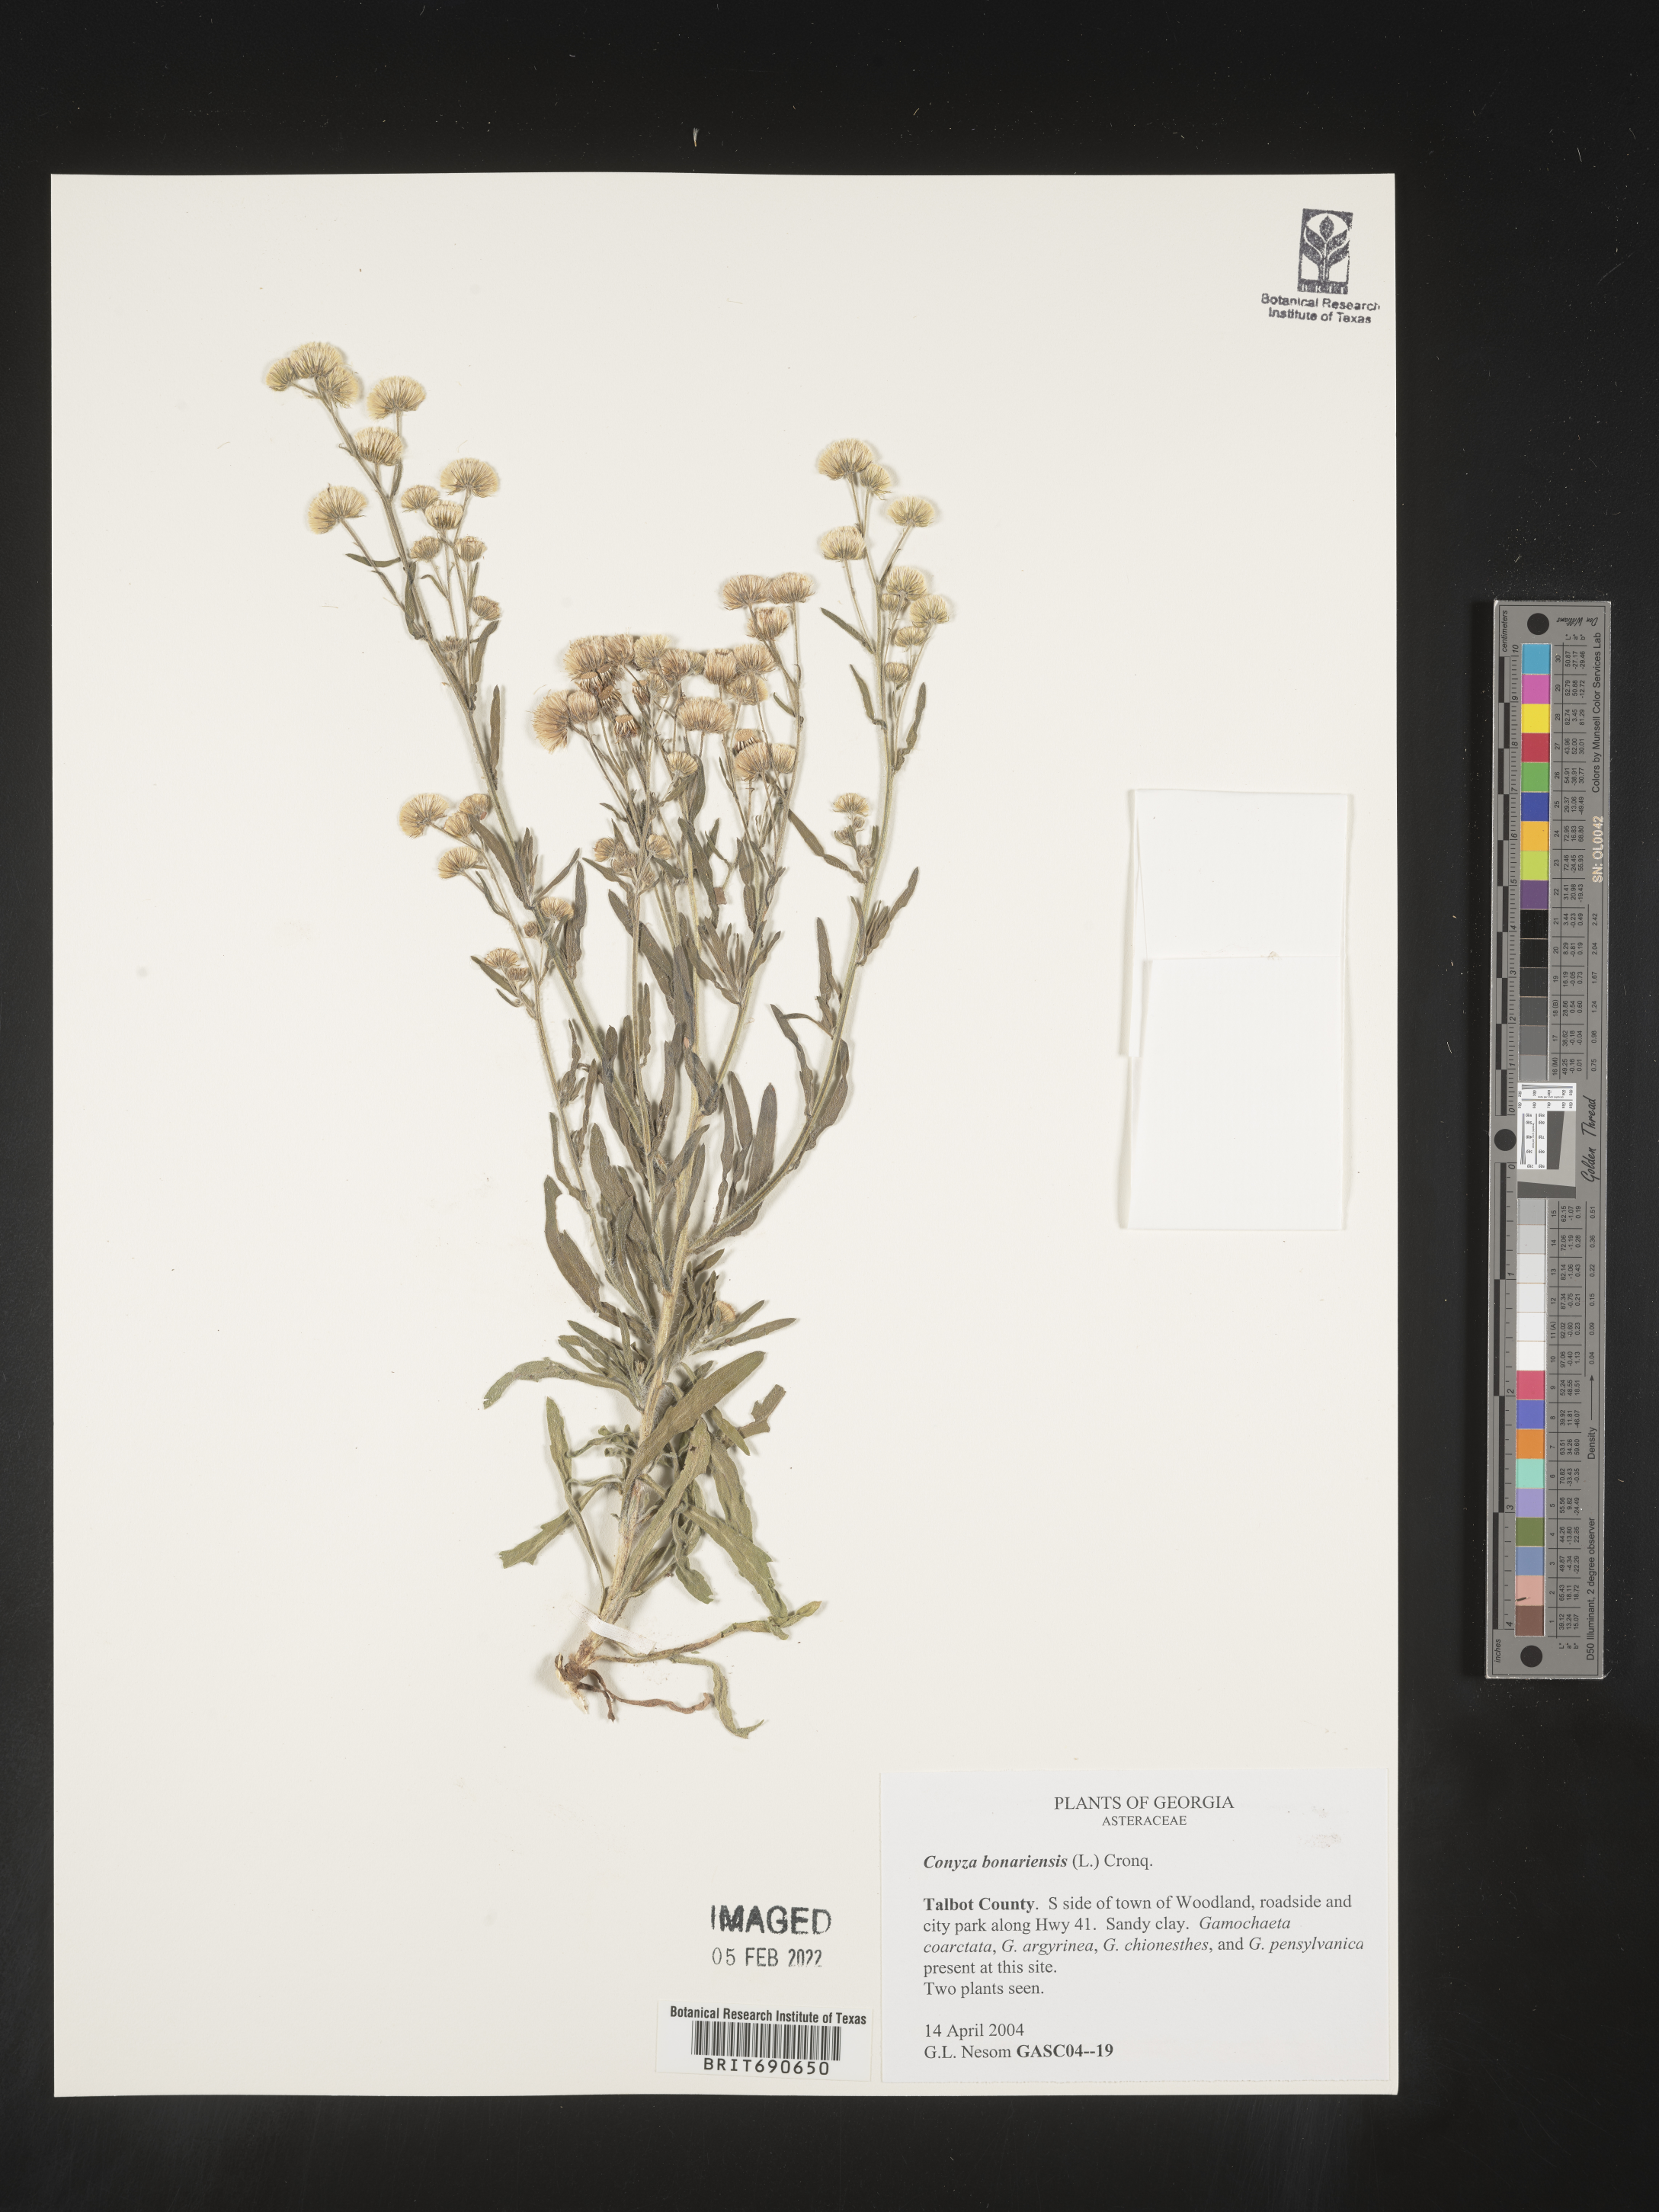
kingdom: Plantae
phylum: Tracheophyta
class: Magnoliopsida
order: Asterales
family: Asteraceae
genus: Erigeron
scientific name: Erigeron bonariensis
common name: Argentine fleabane
